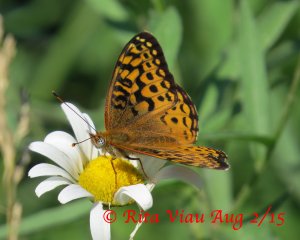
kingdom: Animalia
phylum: Arthropoda
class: Insecta
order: Lepidoptera
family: Nymphalidae
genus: Speyeria
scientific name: Speyeria atlantis
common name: Atlantis Fritillary
